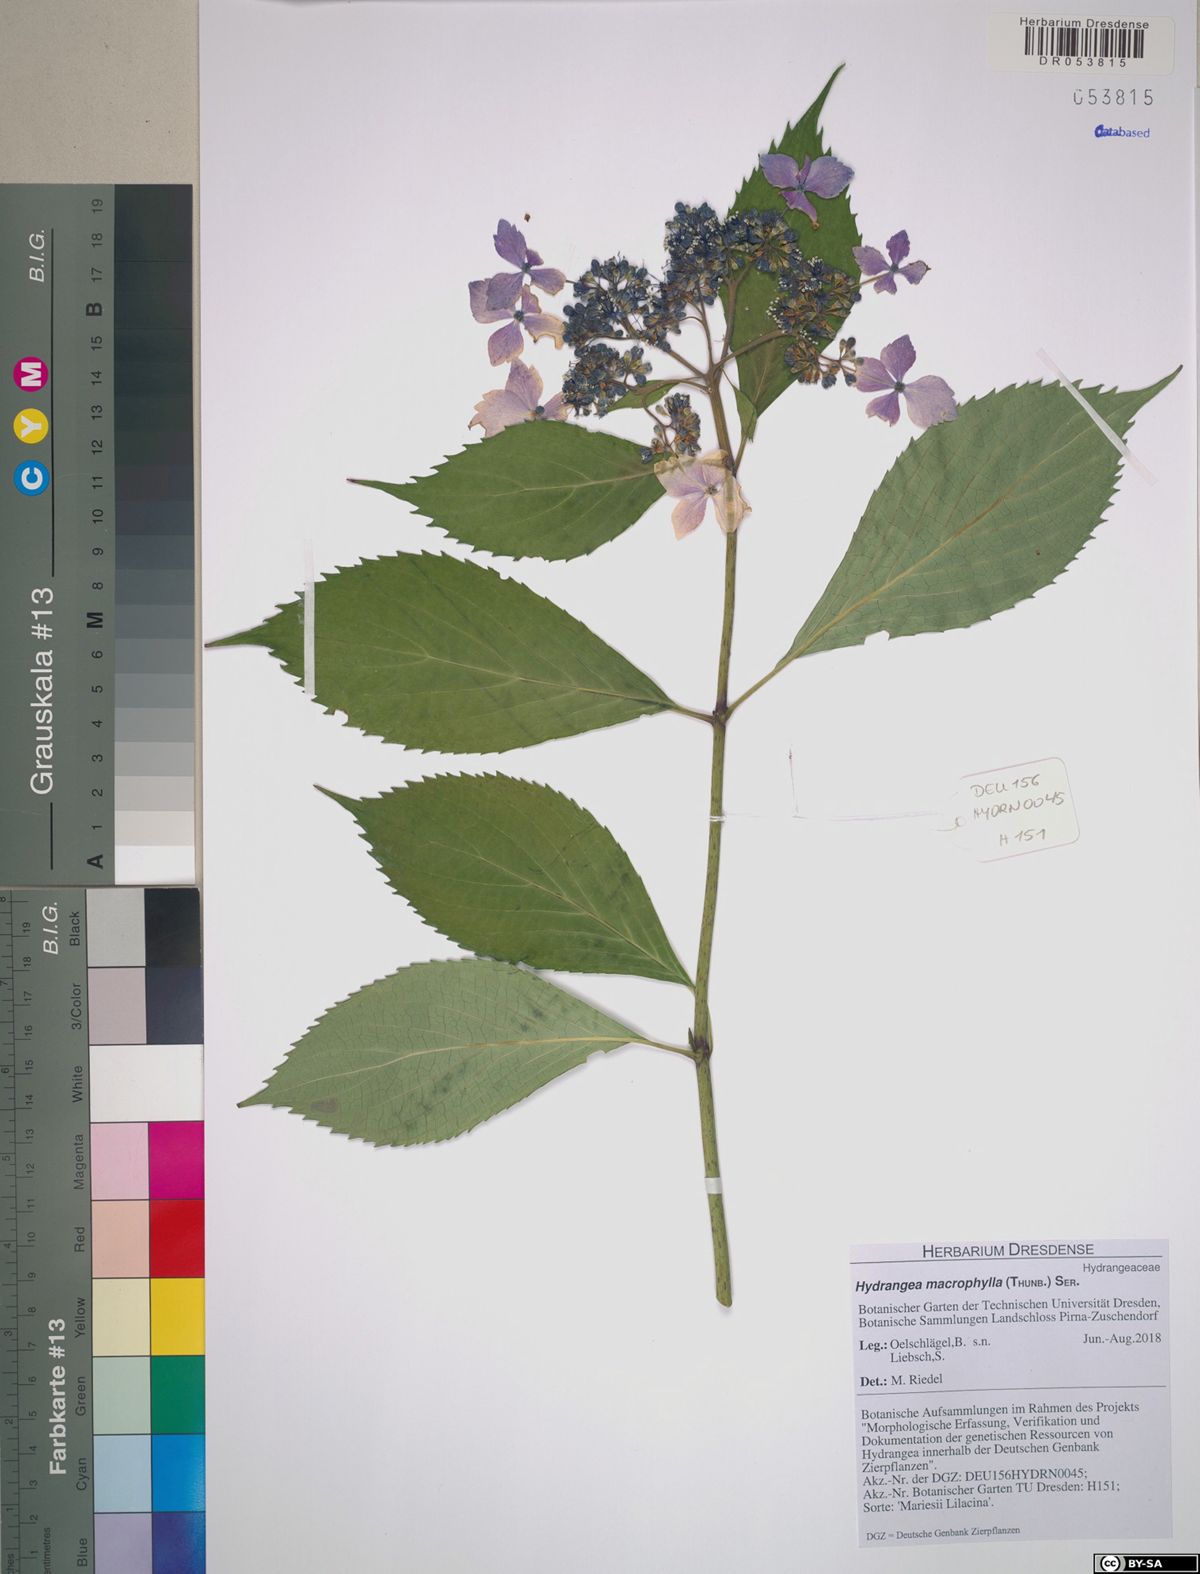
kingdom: Plantae
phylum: Tracheophyta
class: Magnoliopsida
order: Cornales
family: Hydrangeaceae
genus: Hydrangea
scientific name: Hydrangea macrophylla
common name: Hydrangea
